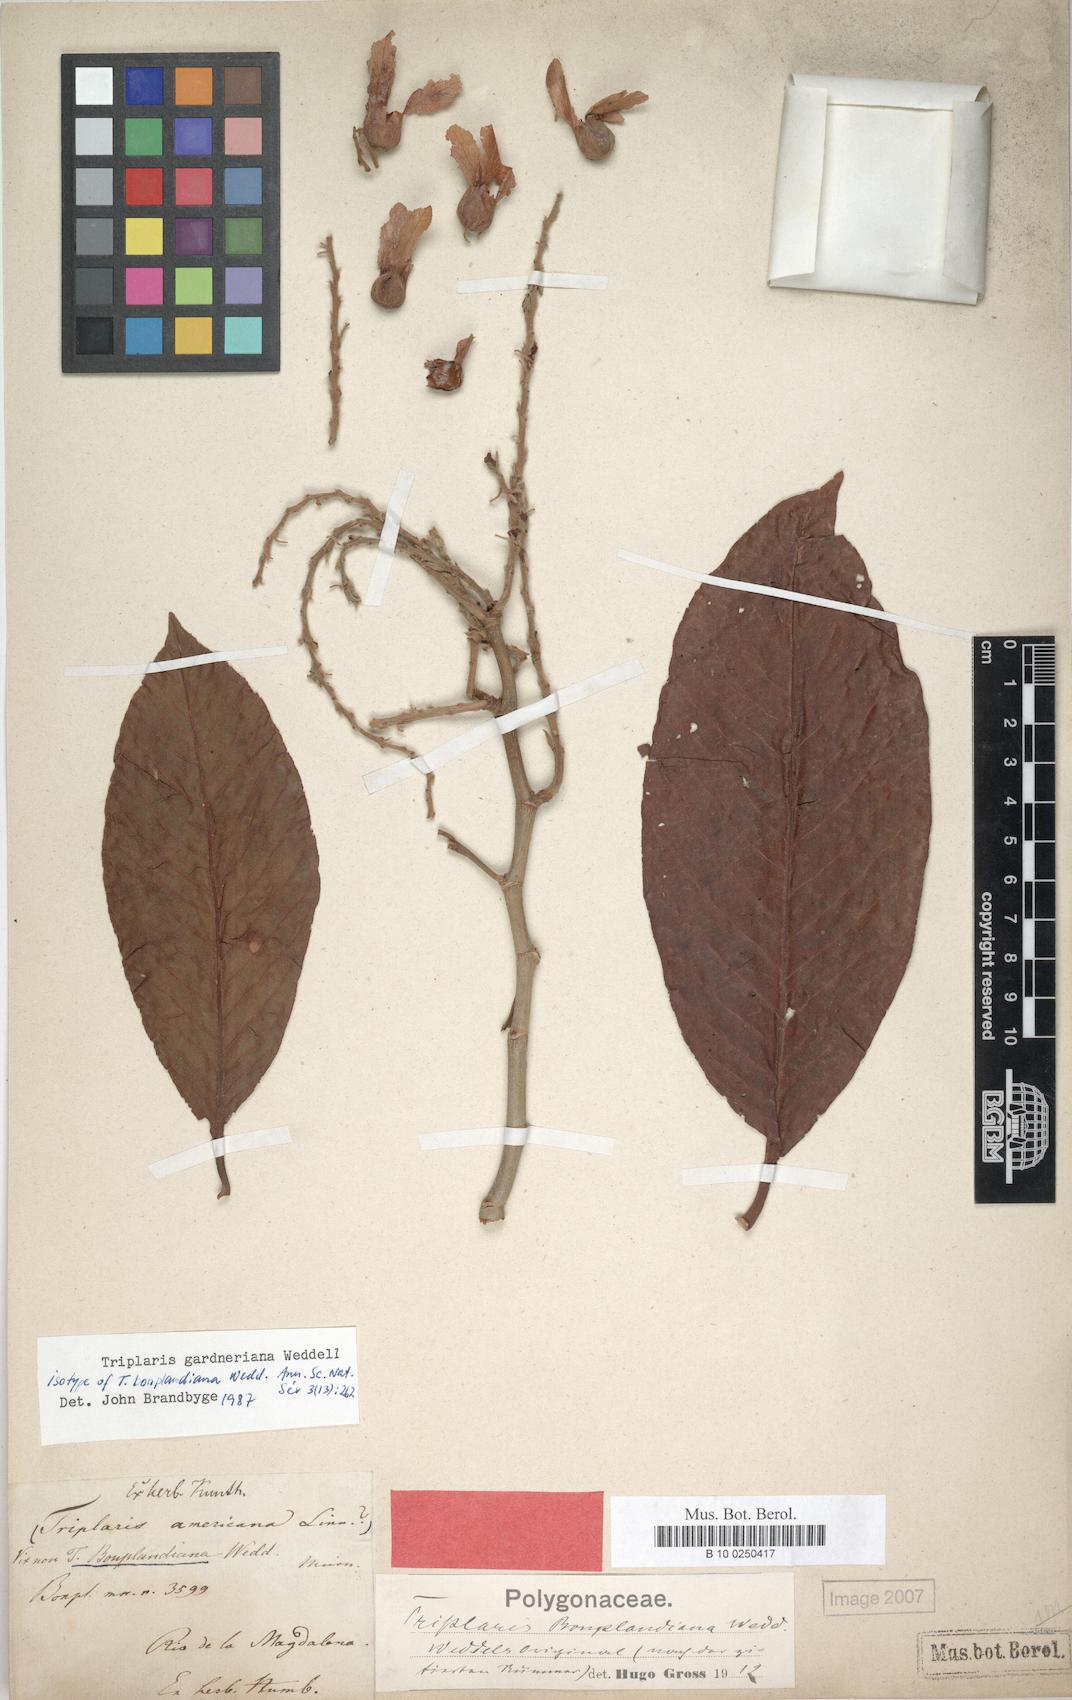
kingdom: Plantae
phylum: Tracheophyta
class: Magnoliopsida
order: Caryophyllales
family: Polygonaceae
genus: Triplaris
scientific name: Triplaris gardneriana
